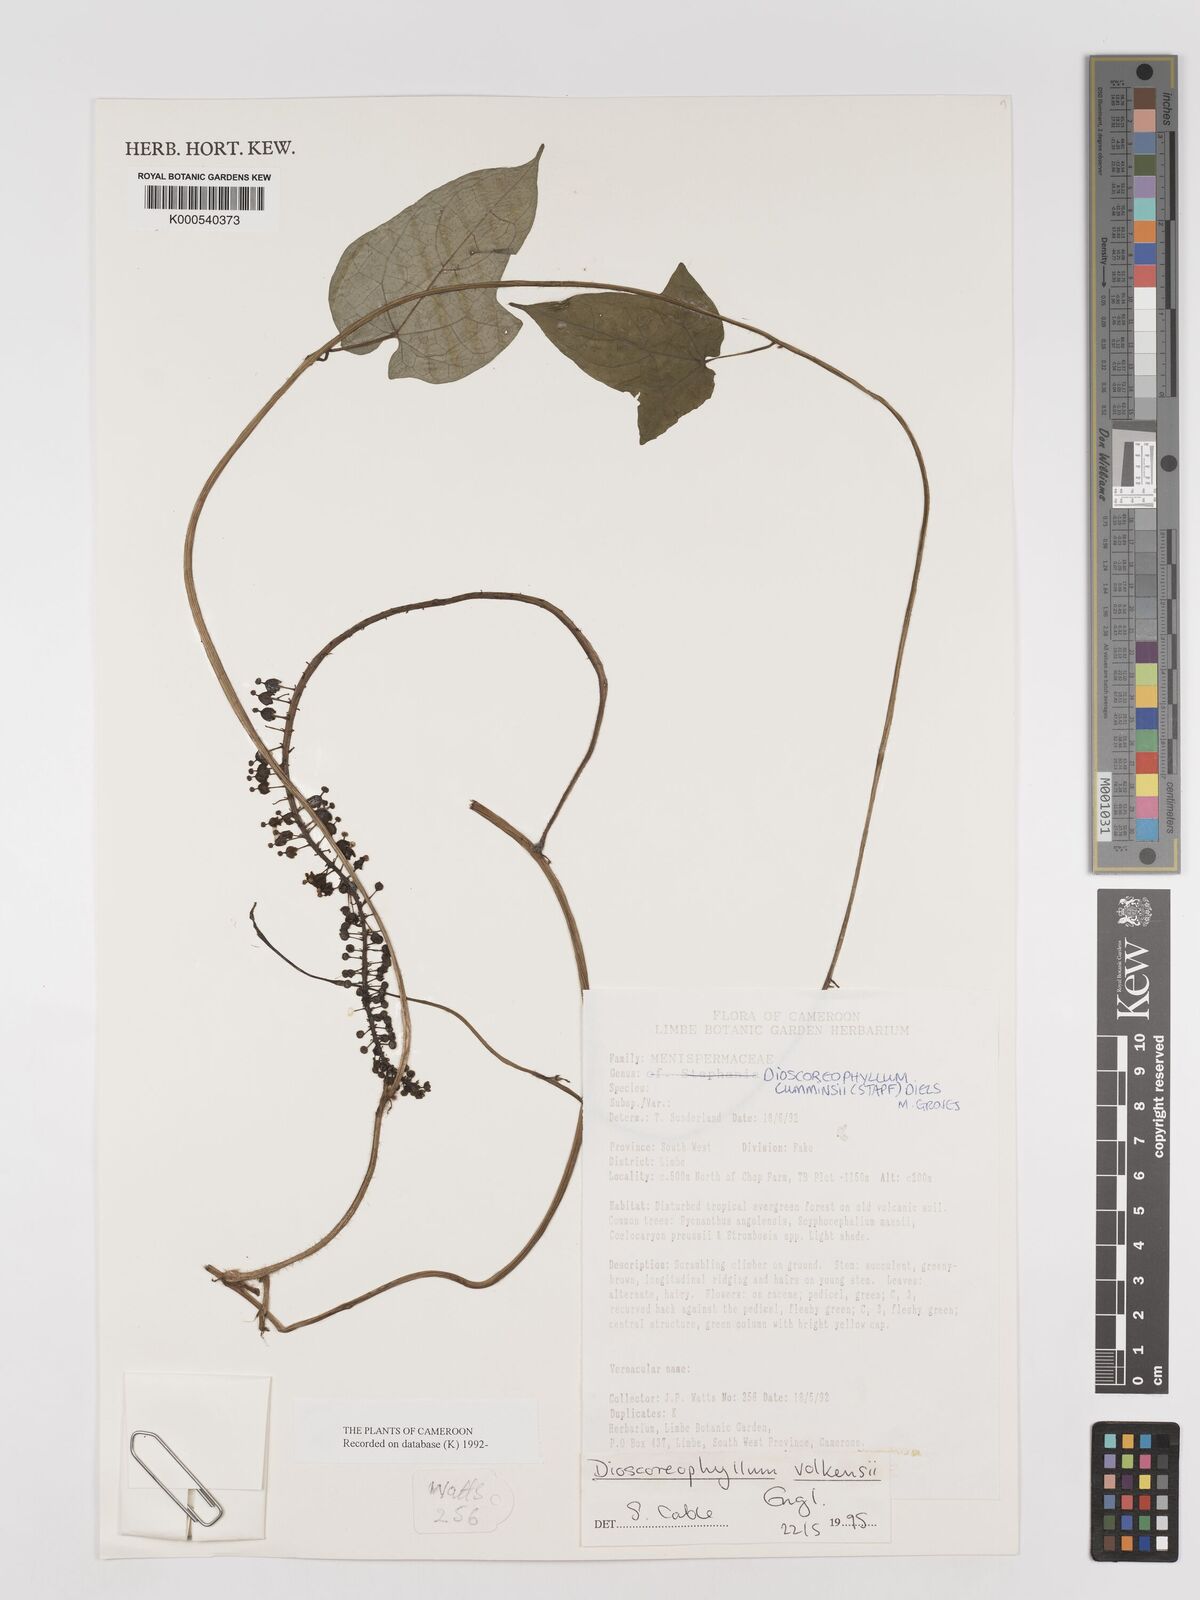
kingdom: Plantae
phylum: Tracheophyta
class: Magnoliopsida
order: Ranunculales
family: Menispermaceae
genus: Dioscoreophyllum
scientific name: Dioscoreophyllum
